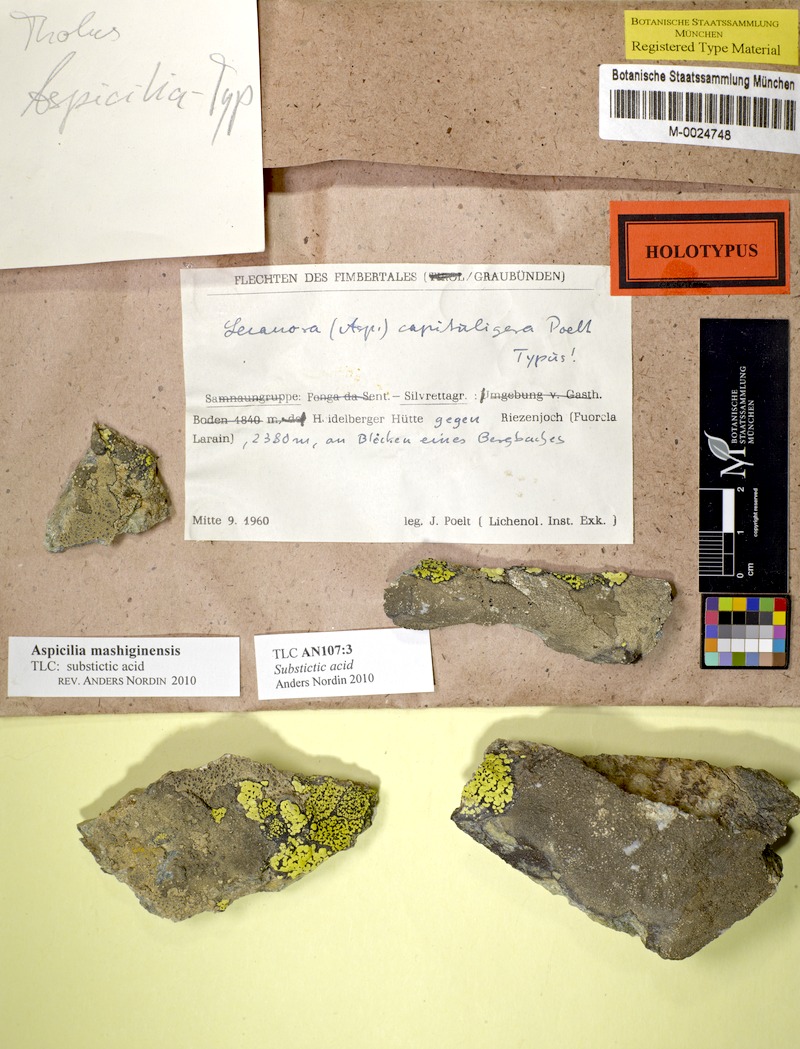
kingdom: Fungi
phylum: Ascomycota
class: Lecanoromycetes
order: Pertusariales
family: Megasporaceae
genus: Oxneriaria
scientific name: Oxneriaria mashiginensis
